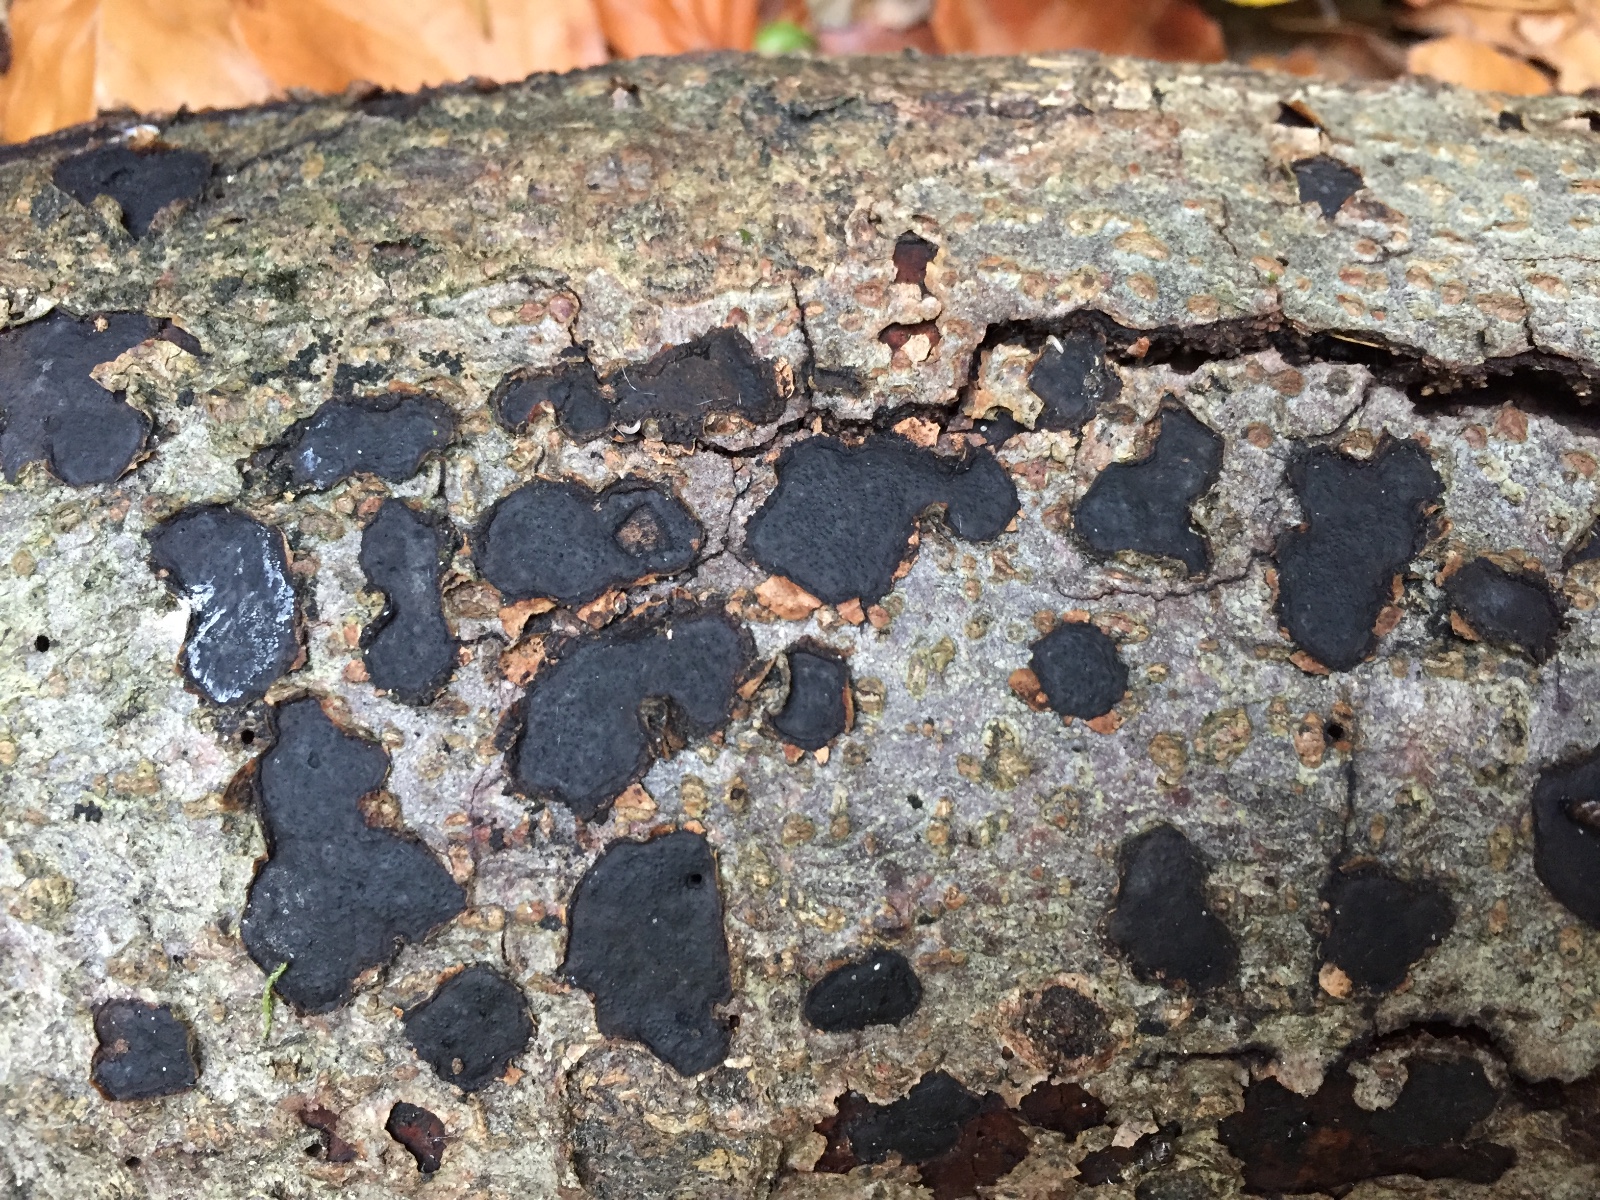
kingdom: Fungi
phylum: Ascomycota
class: Sordariomycetes
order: Xylariales
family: Graphostromataceae
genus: Biscogniauxia
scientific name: Biscogniauxia nummularia
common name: bøge-kulskive
